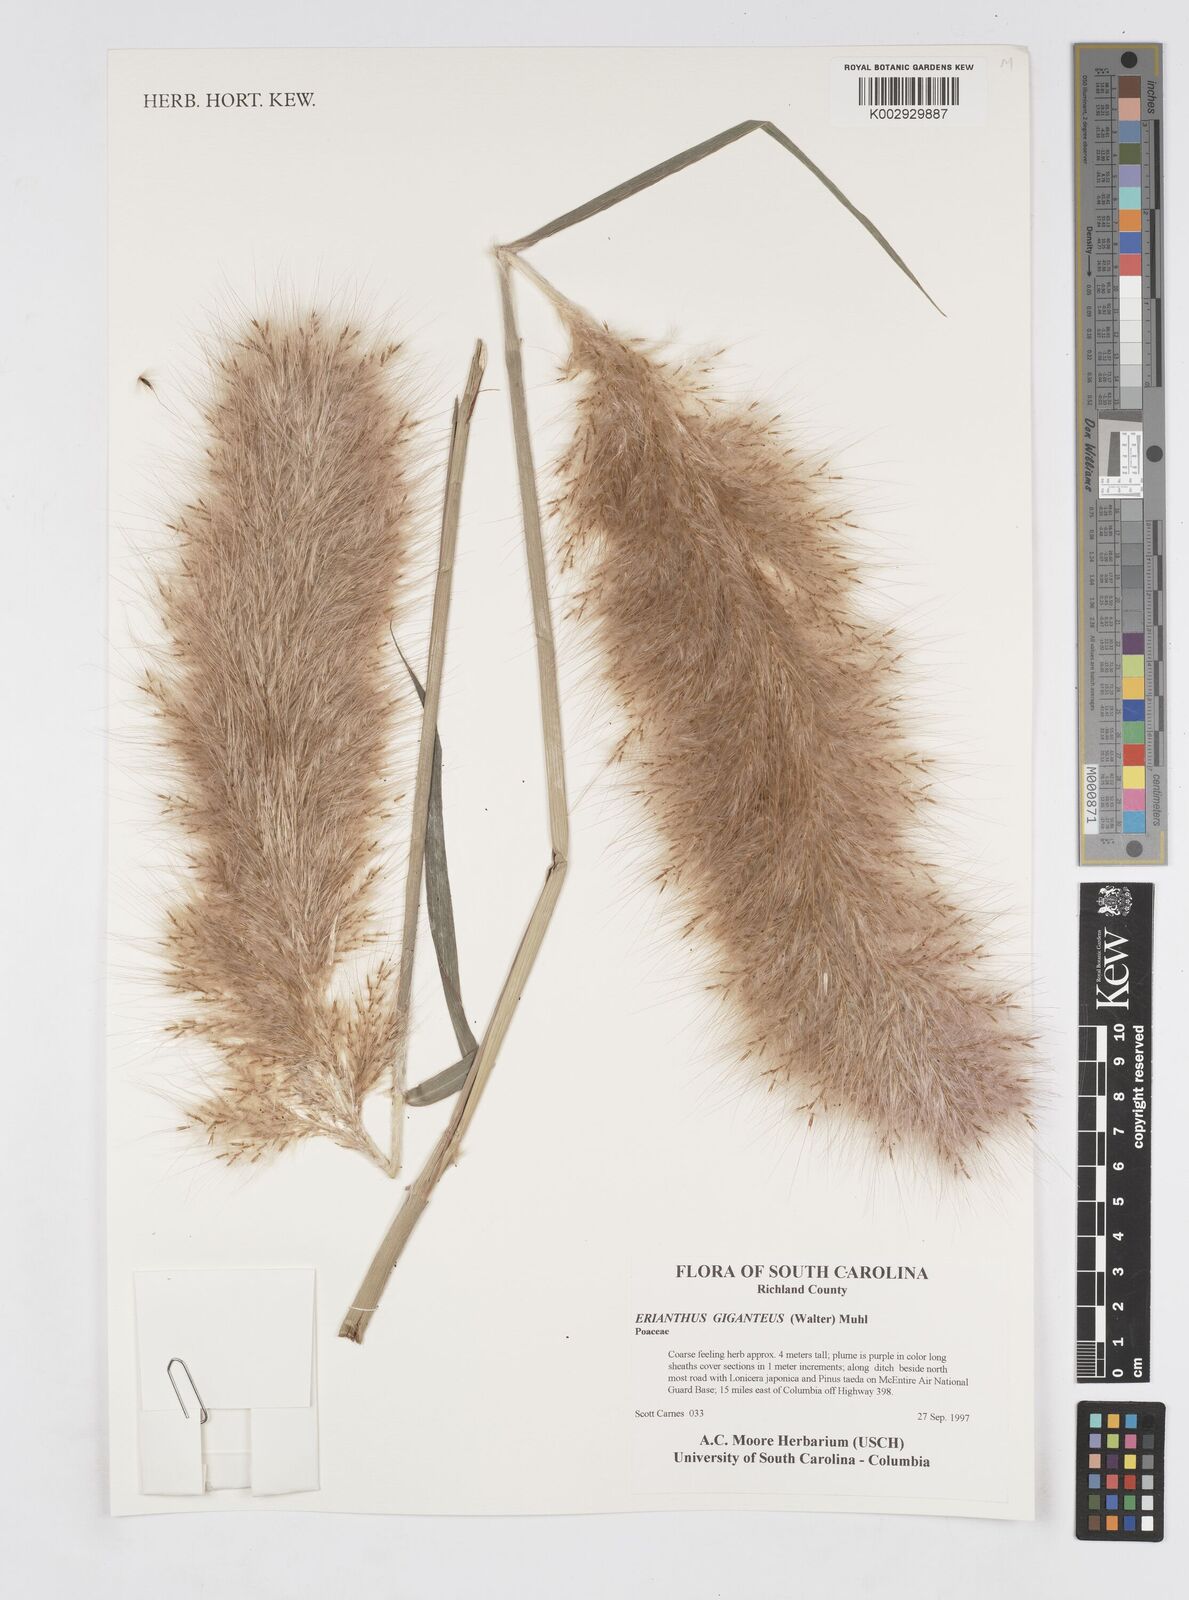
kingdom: Plantae
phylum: Tracheophyta
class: Liliopsida
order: Poales
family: Poaceae
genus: Erianthus
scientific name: Erianthus giganteus
